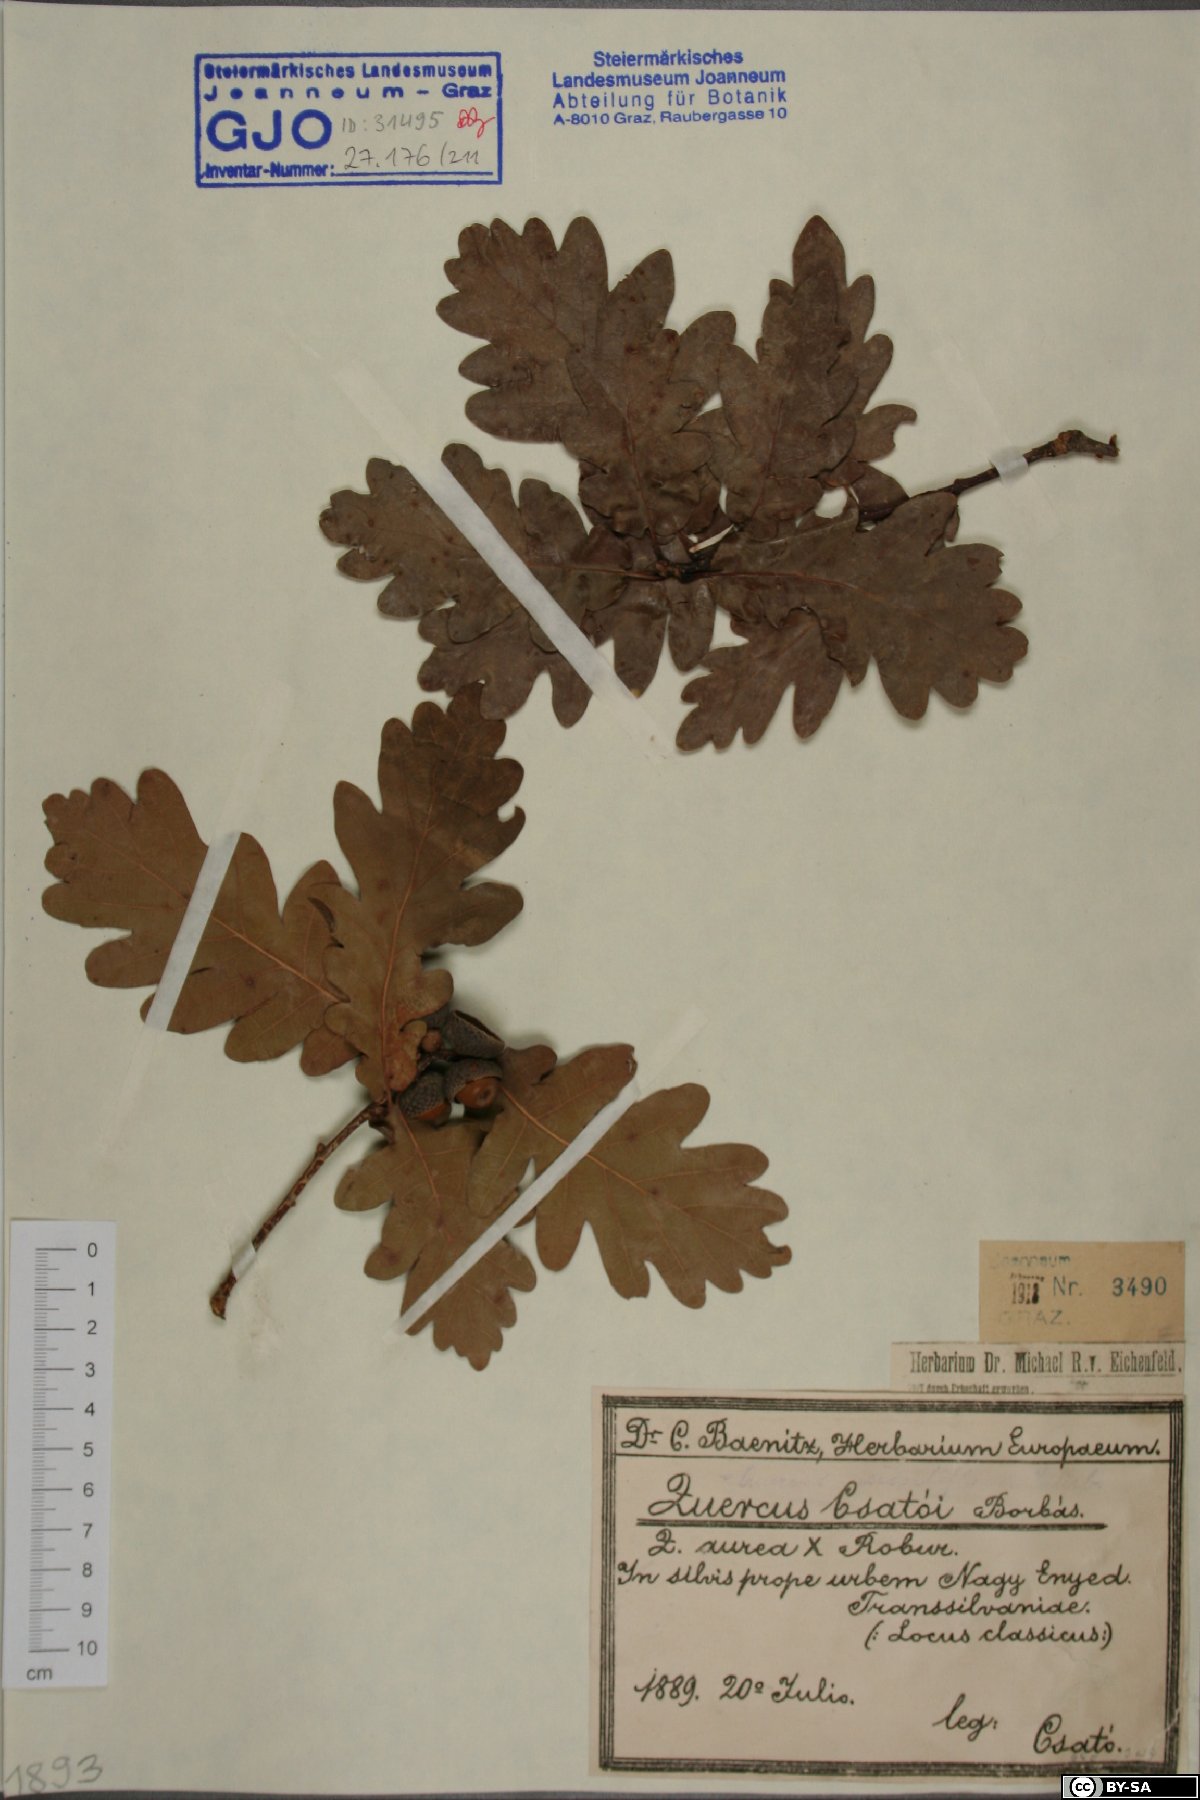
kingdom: Plantae
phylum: Tracheophyta
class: Magnoliopsida
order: Fagales
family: Fagaceae
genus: Quercus
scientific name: Quercus rosacea
